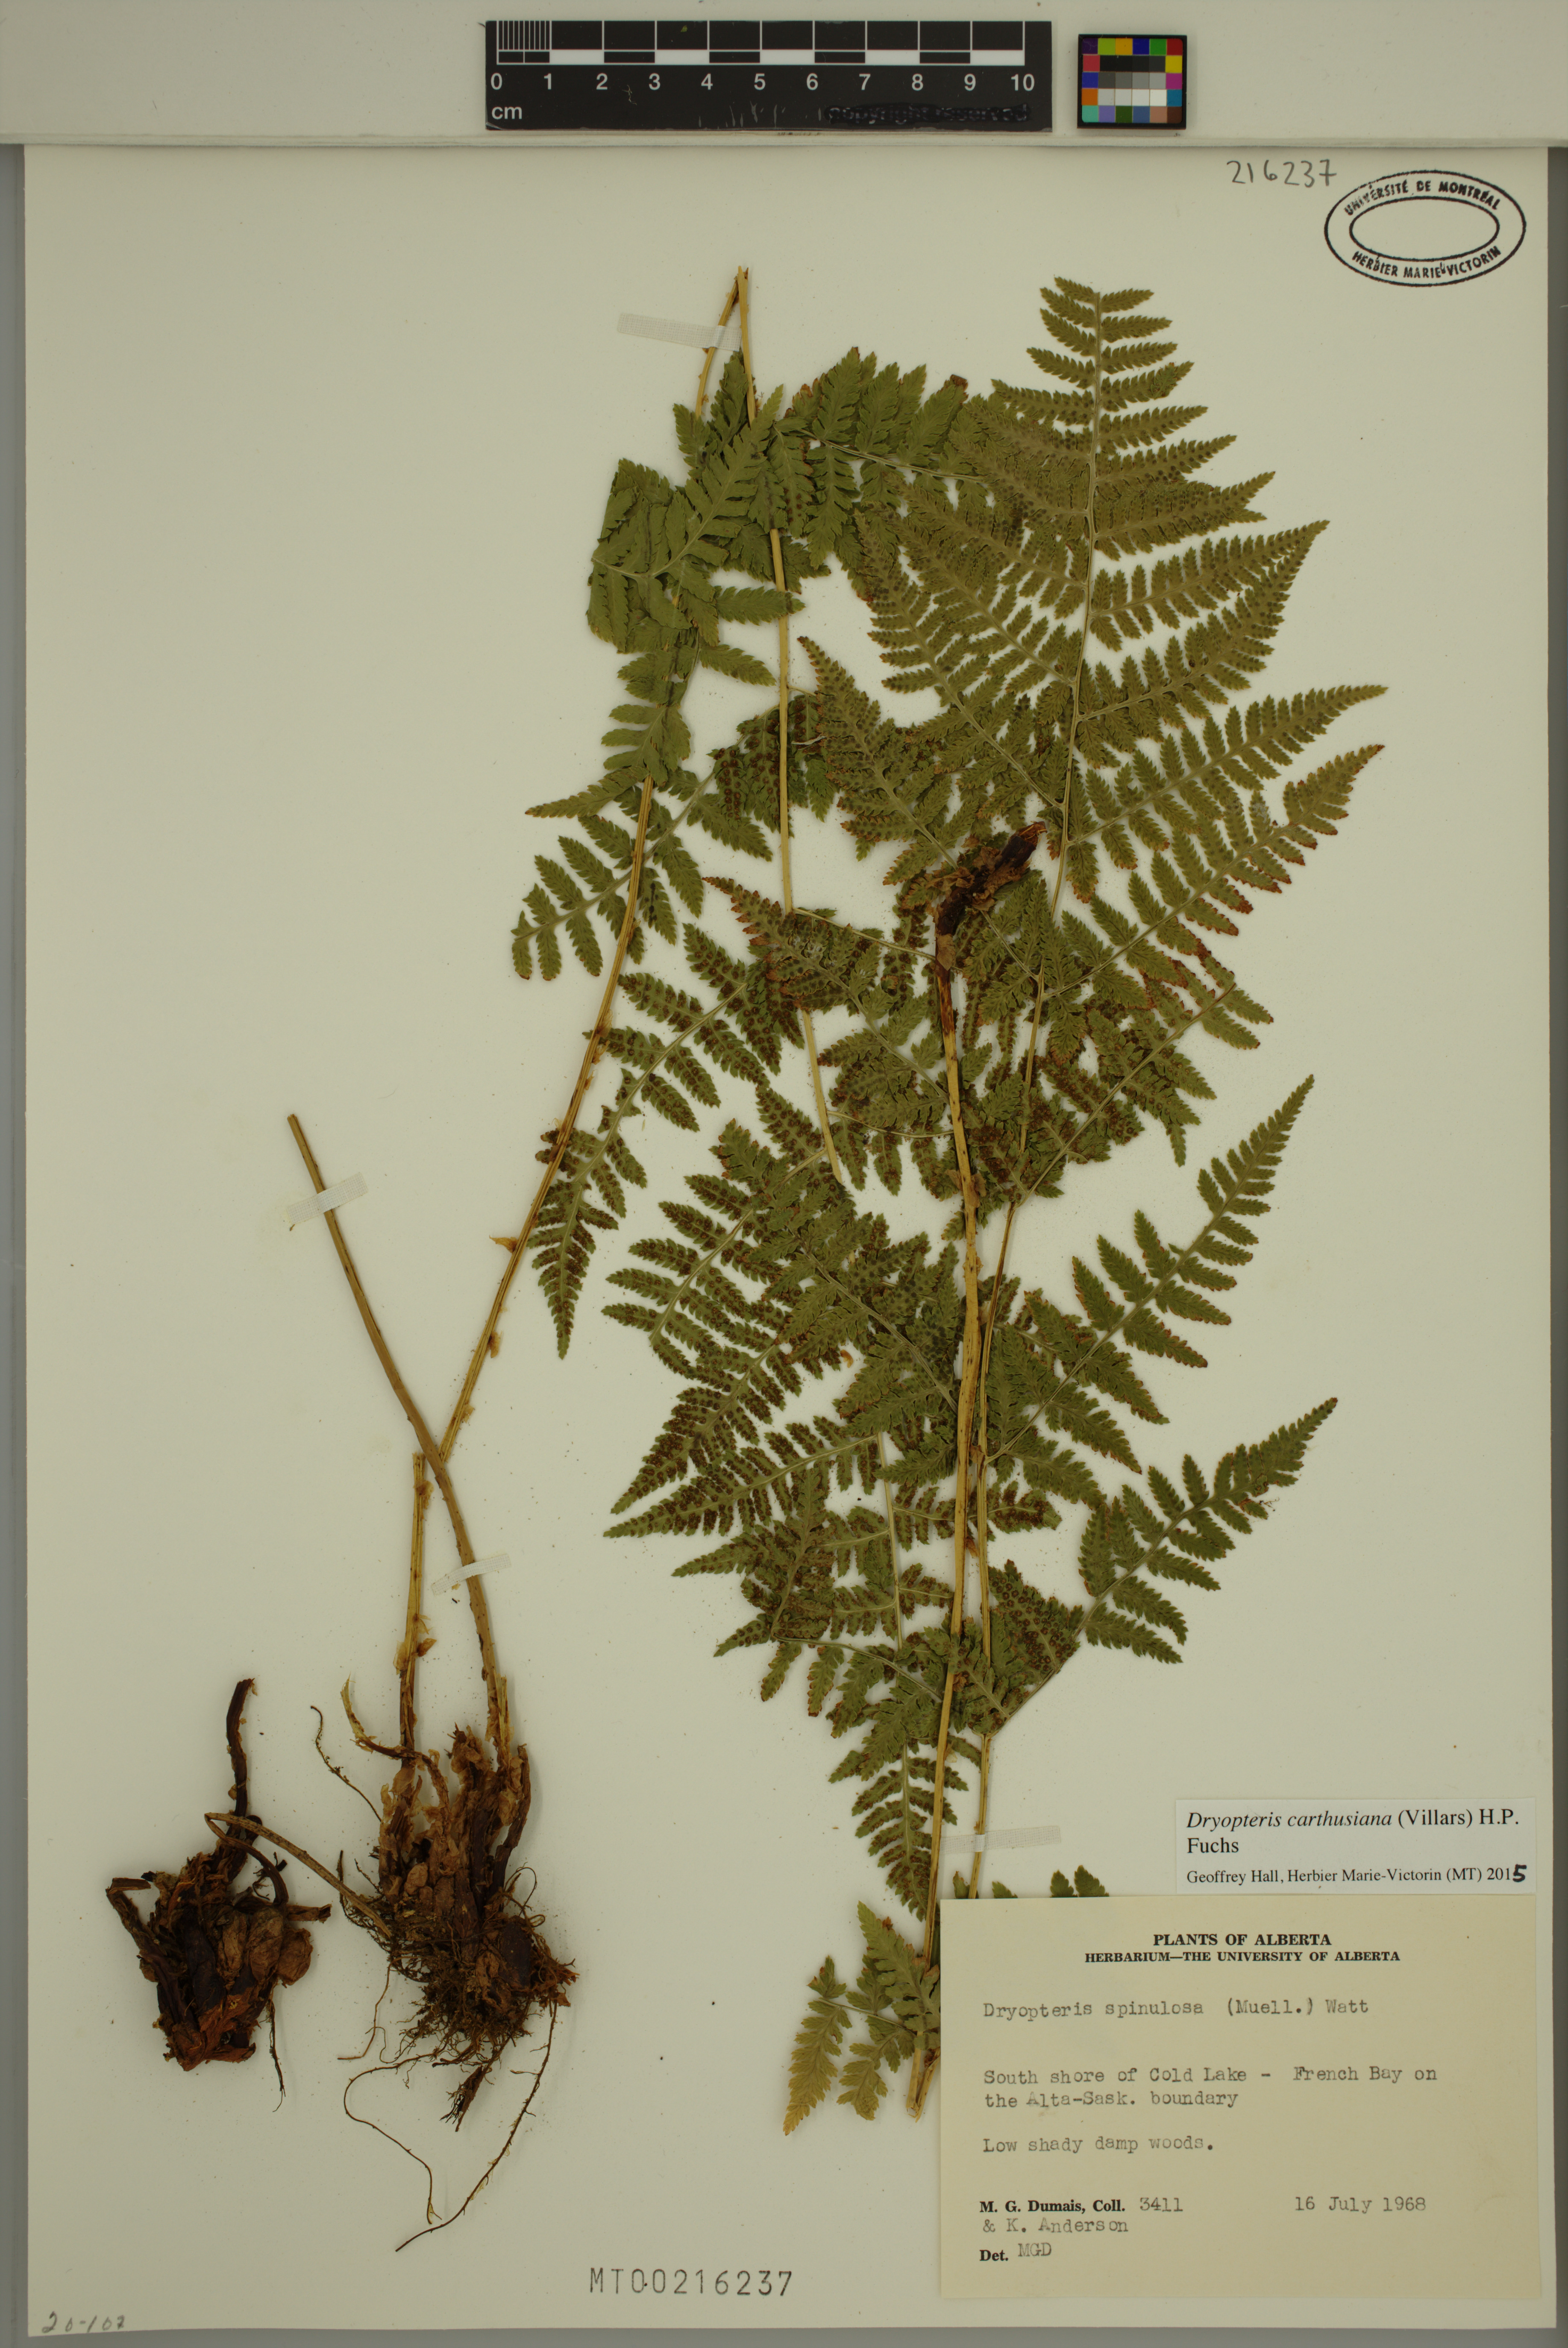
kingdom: Plantae
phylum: Tracheophyta
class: Polypodiopsida
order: Polypodiales
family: Dryopteridaceae
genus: Dryopteris
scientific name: Dryopteris carthusiana
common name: Narrow buckler-fern
